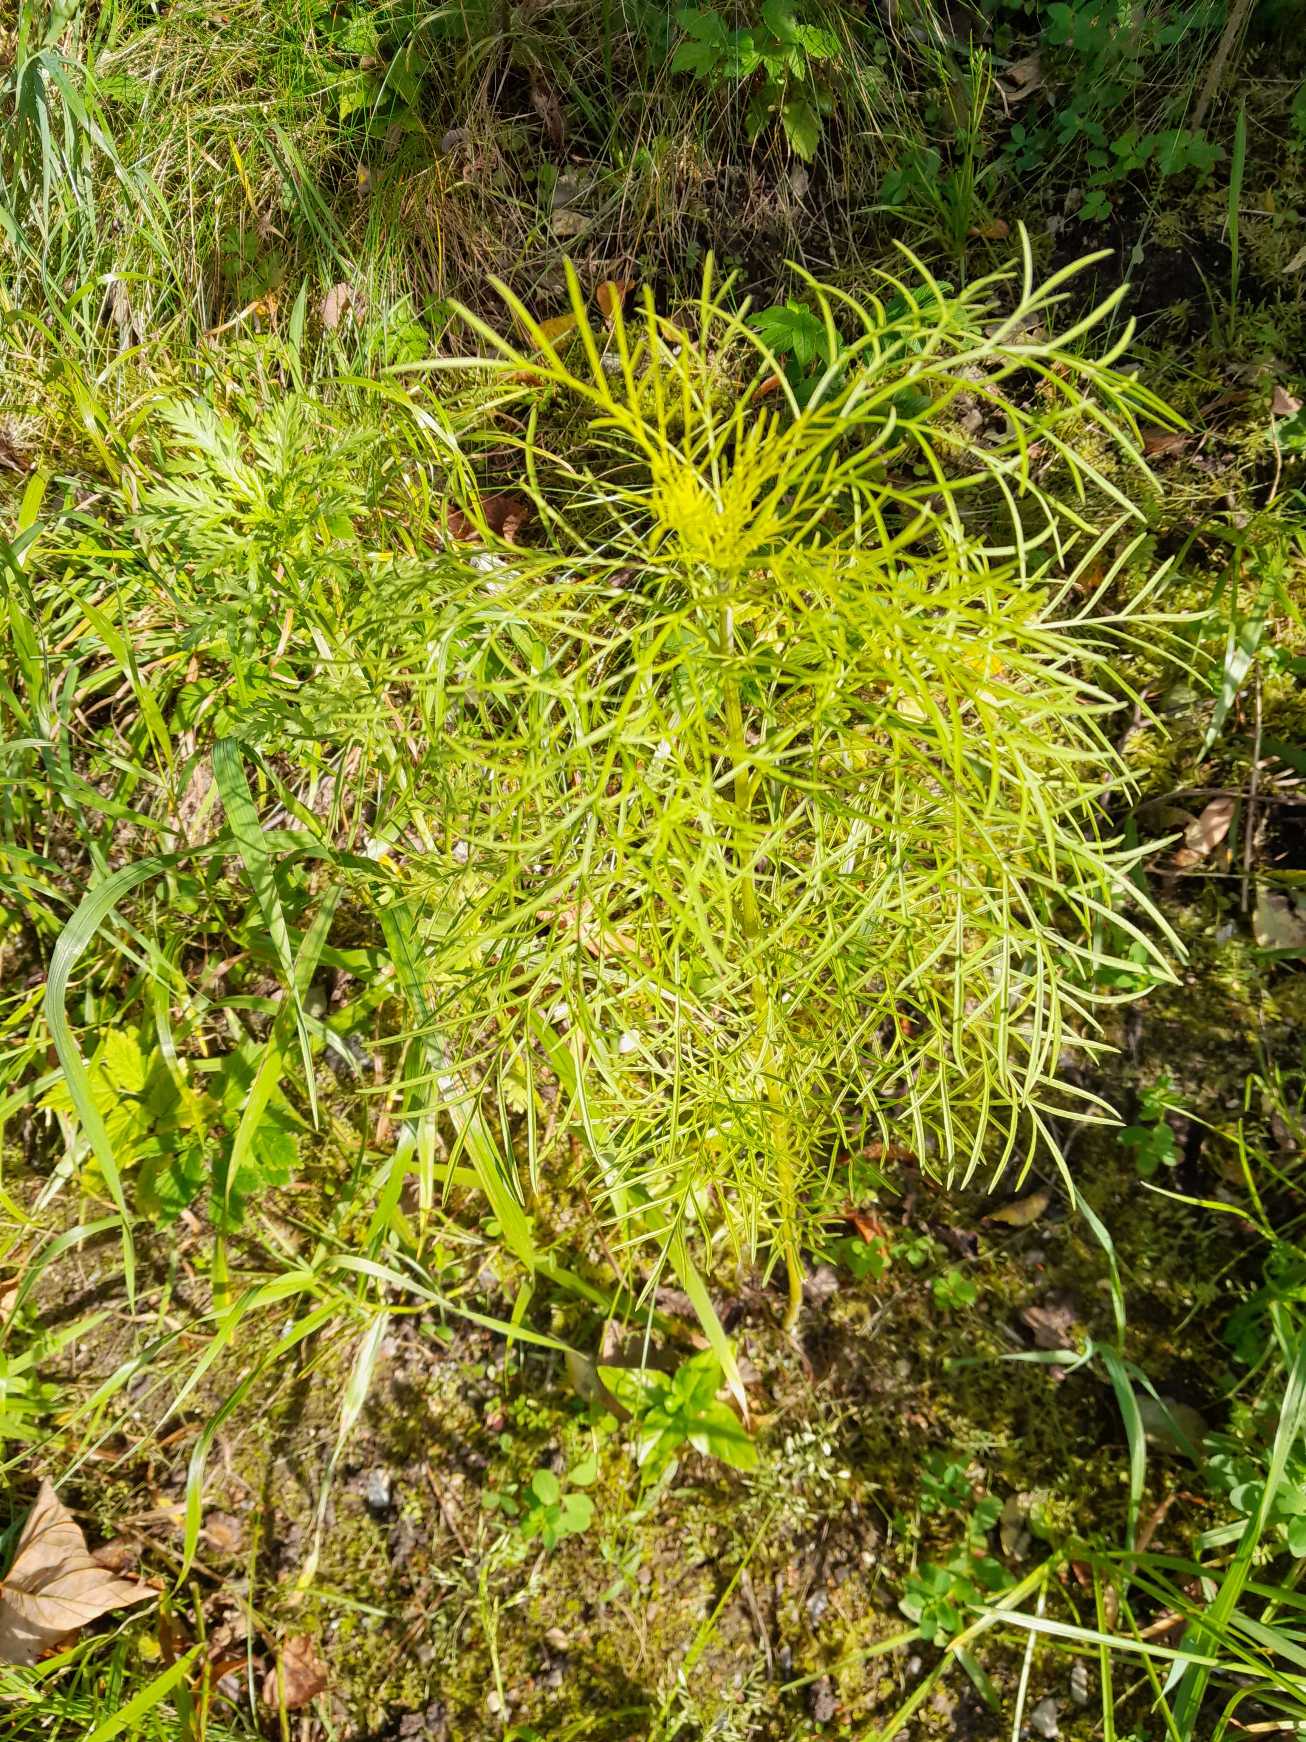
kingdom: Plantae
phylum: Tracheophyta
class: Magnoliopsida
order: Asterales
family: Asteraceae
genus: Cosmos
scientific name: Cosmos bipinnatus
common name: Stolt kavaler
